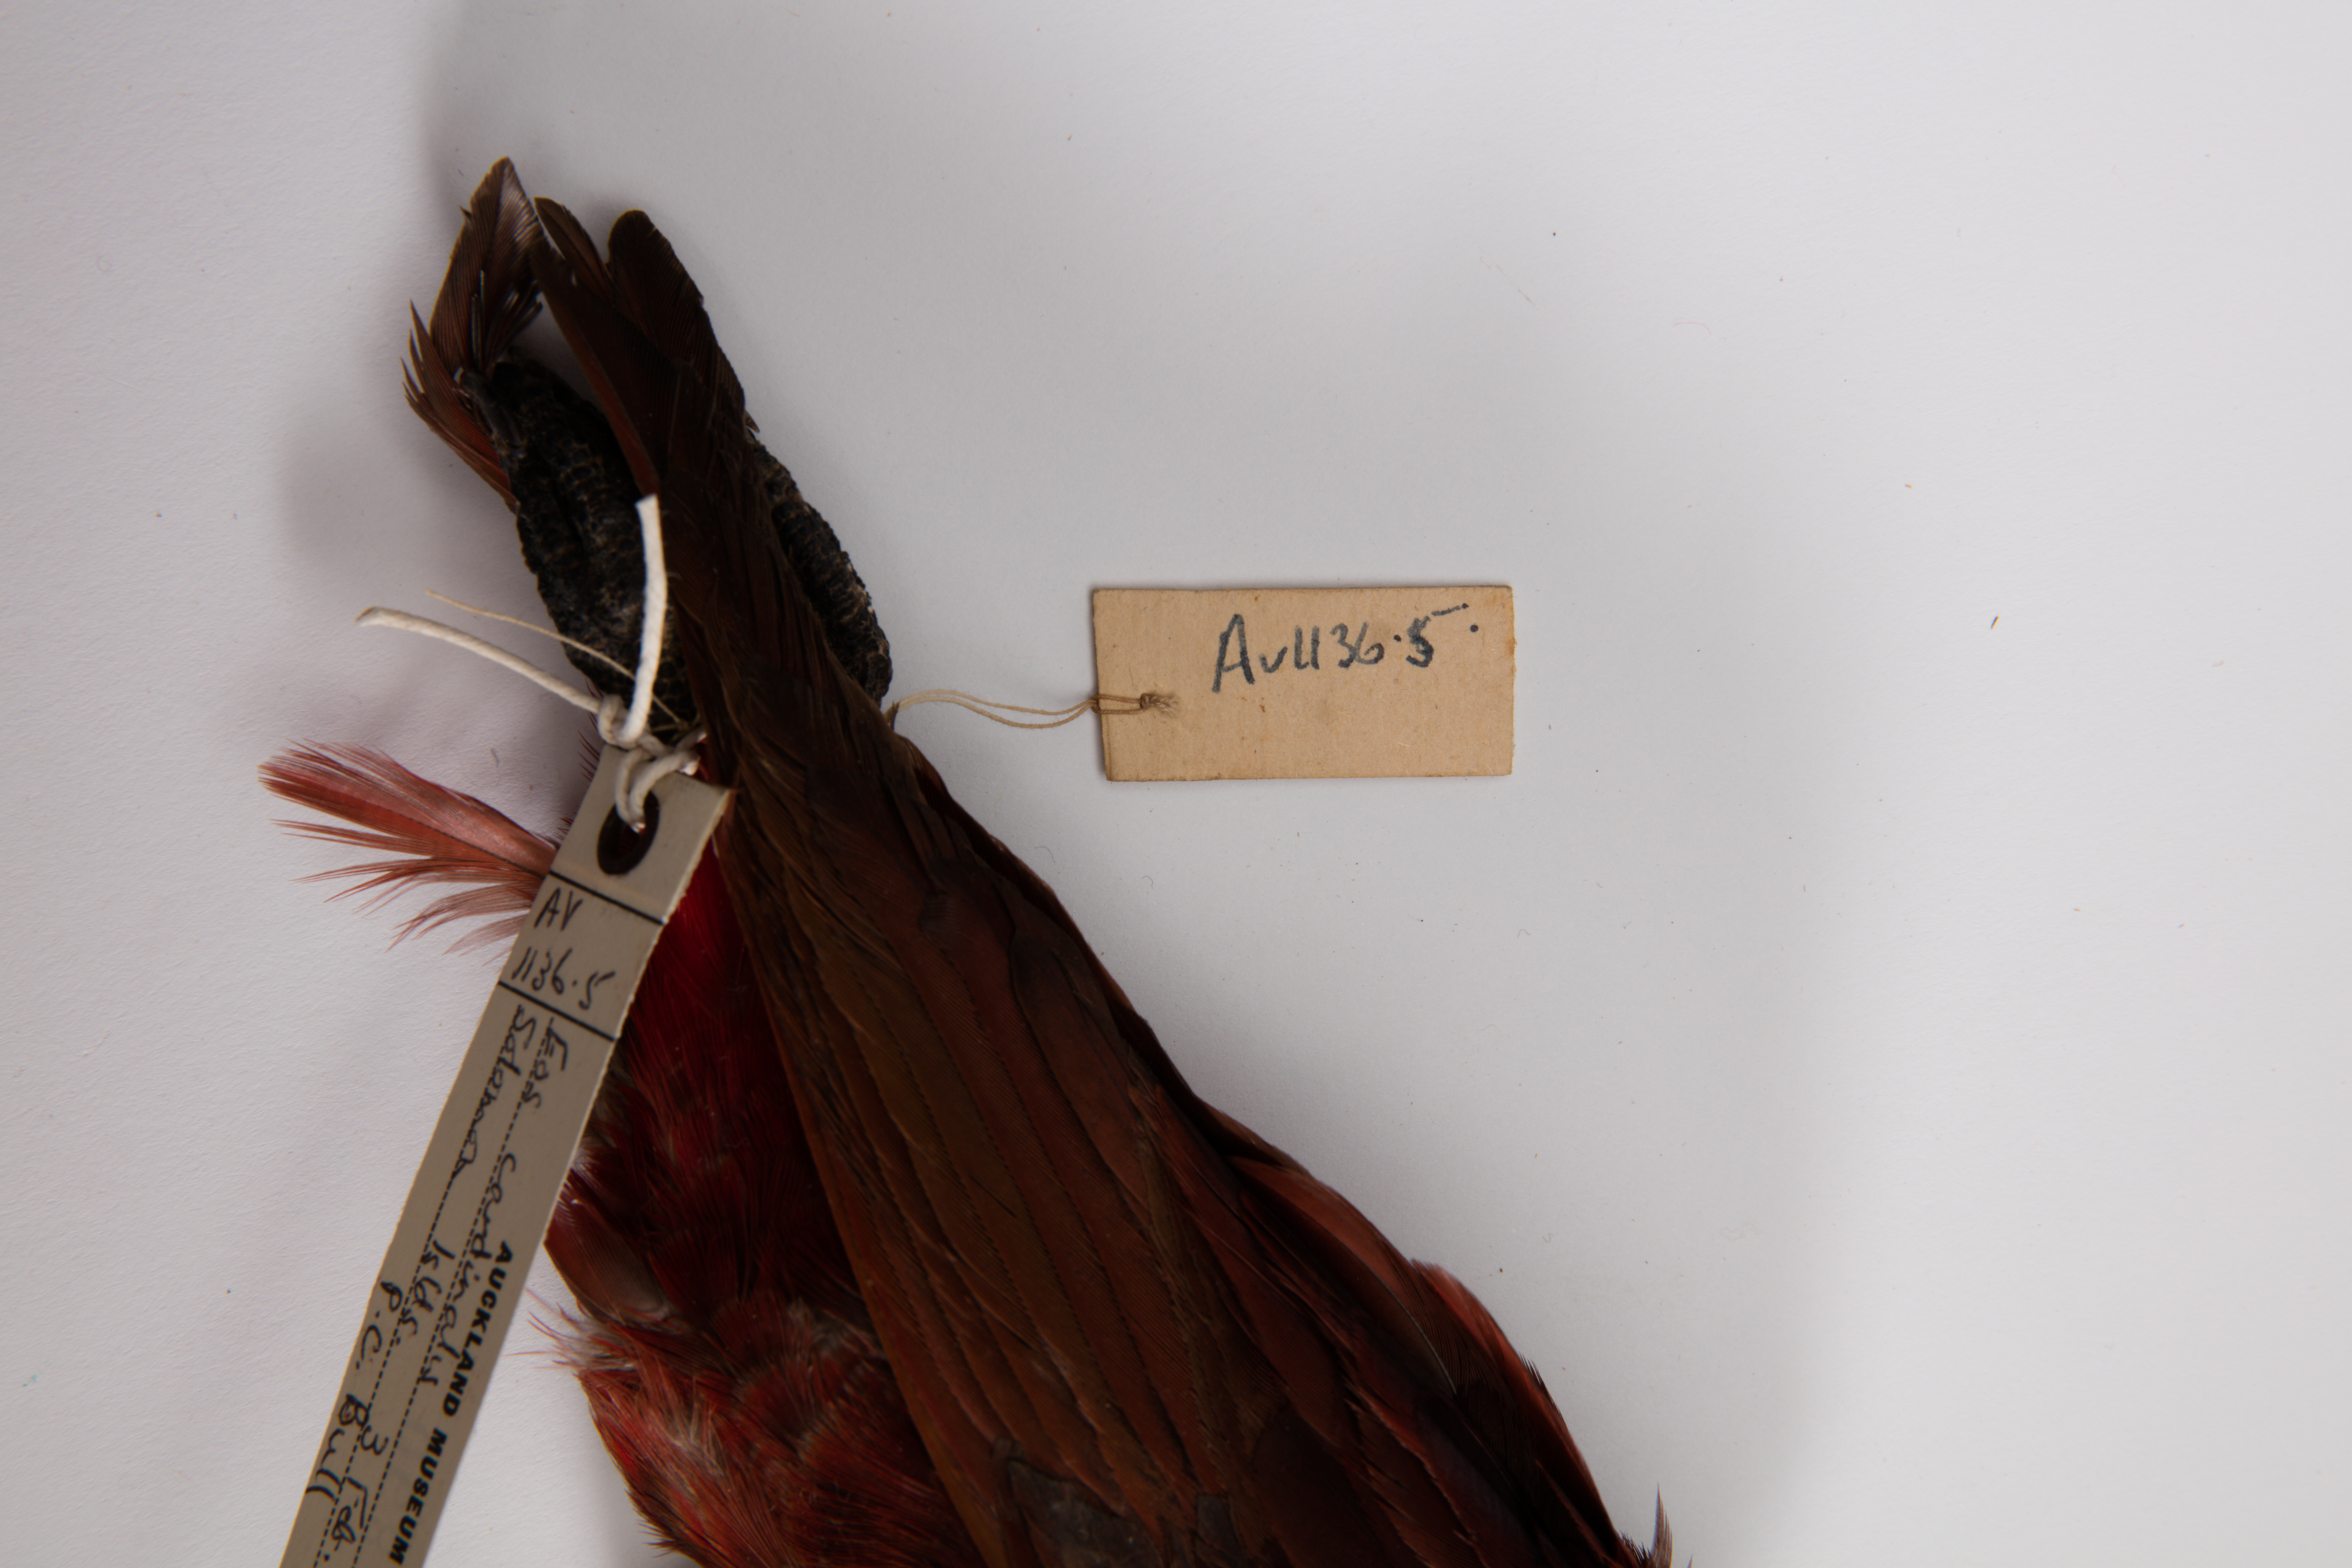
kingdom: Animalia
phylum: Chordata
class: Aves
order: Psittaciformes
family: Psittacidae
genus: Chalcopsitta
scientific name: Chalcopsitta cardinalis
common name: Cardinal lory
